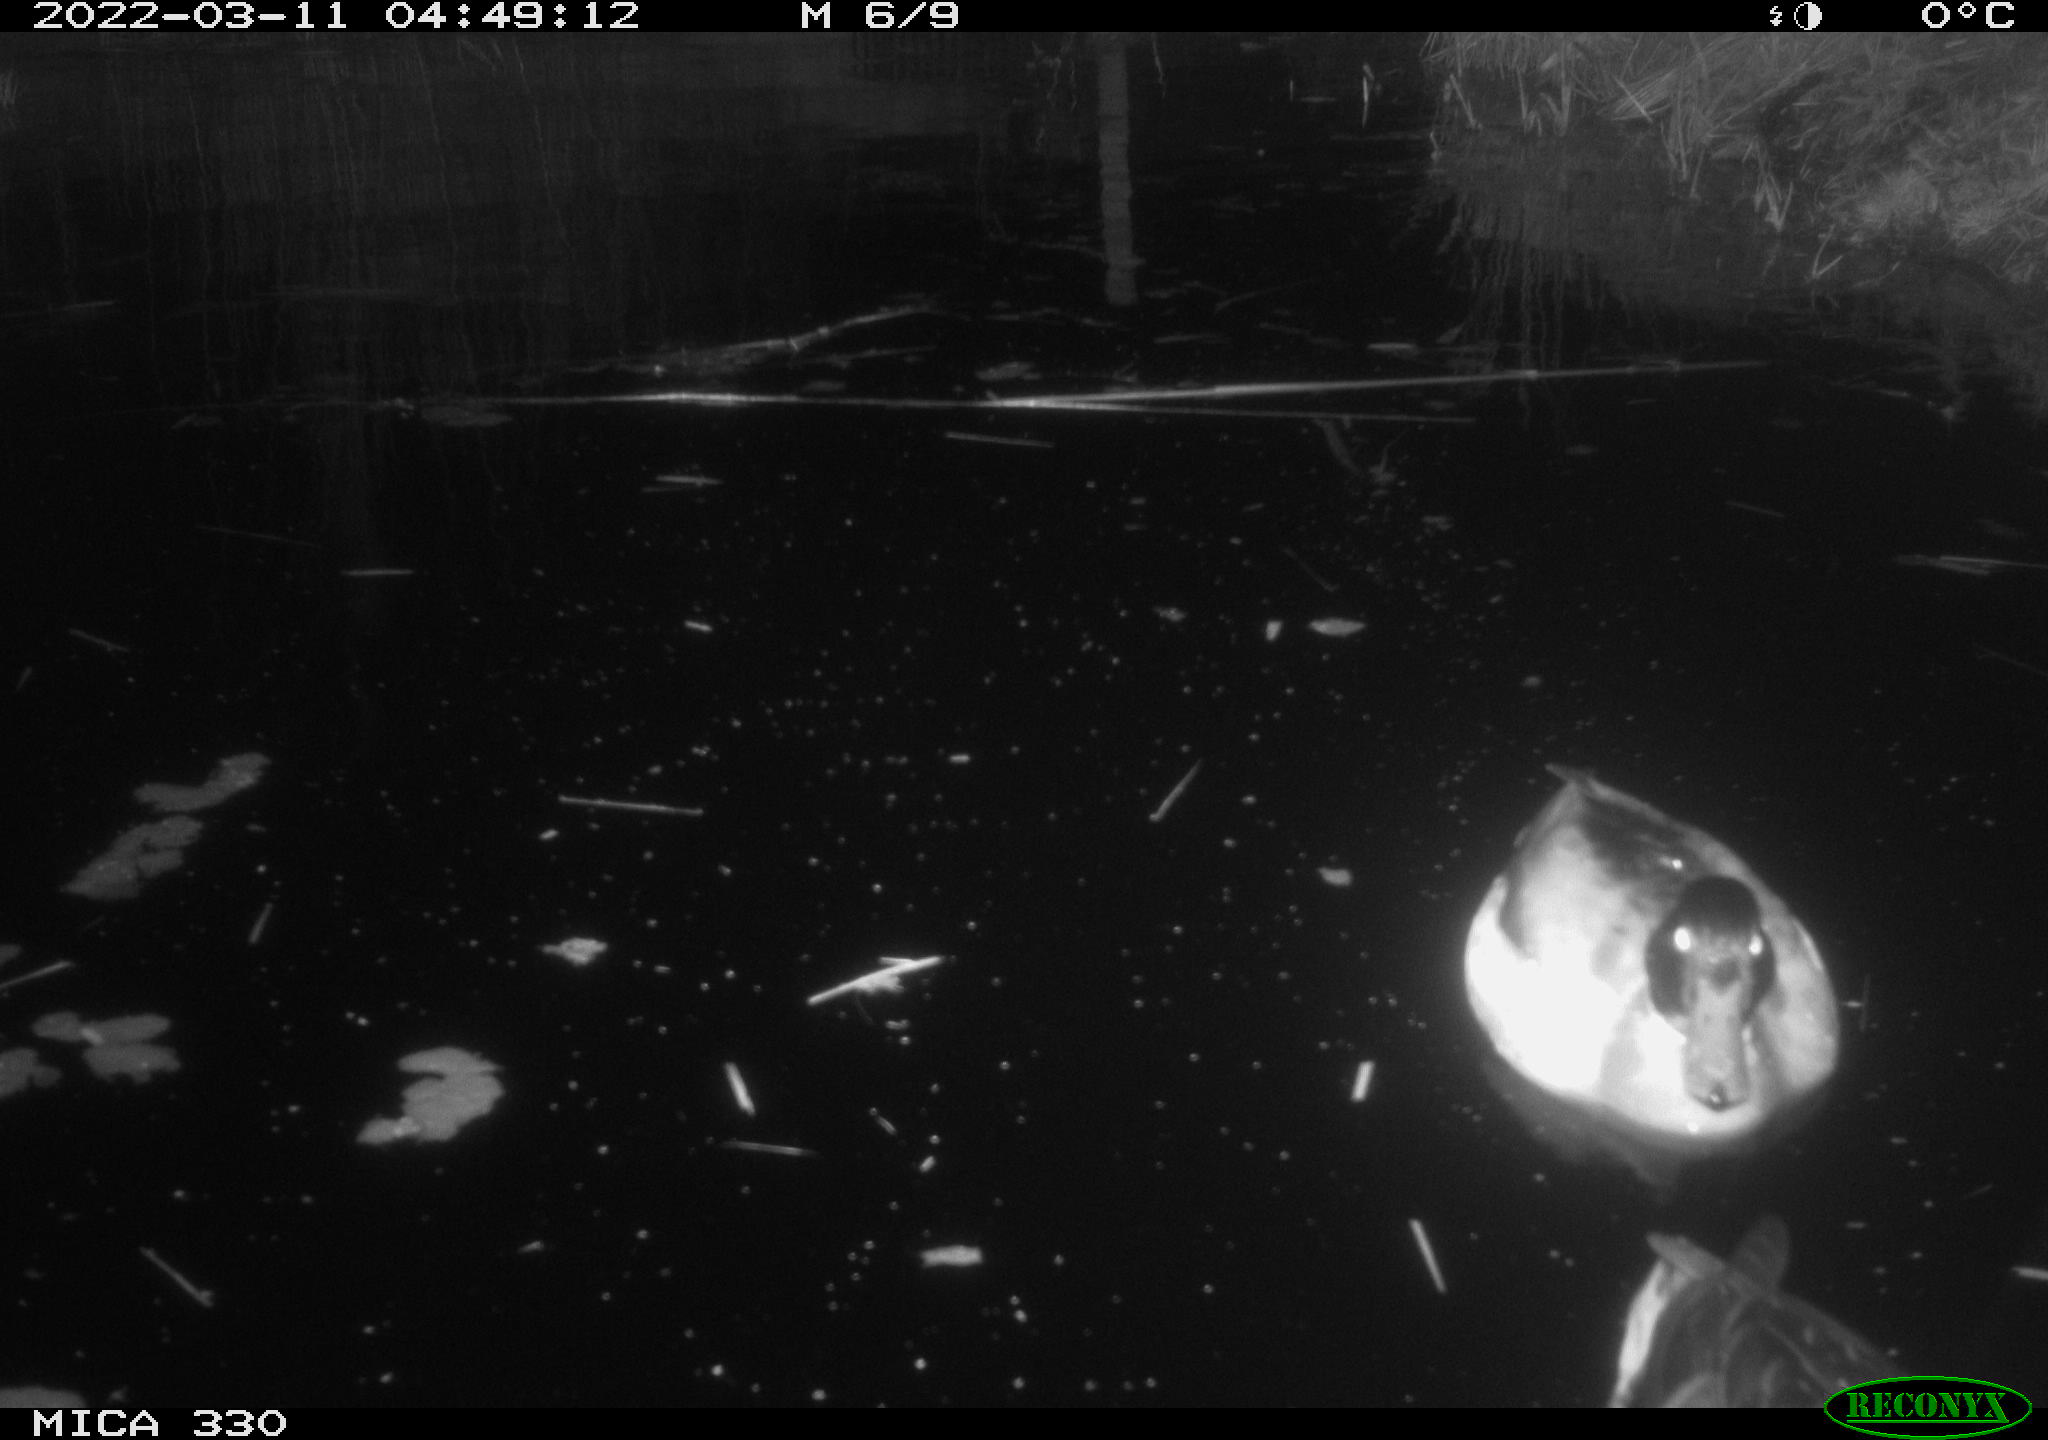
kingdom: Animalia
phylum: Chordata
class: Aves
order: Anseriformes
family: Anatidae
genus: Anas
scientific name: Anas platyrhynchos
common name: Mallard
